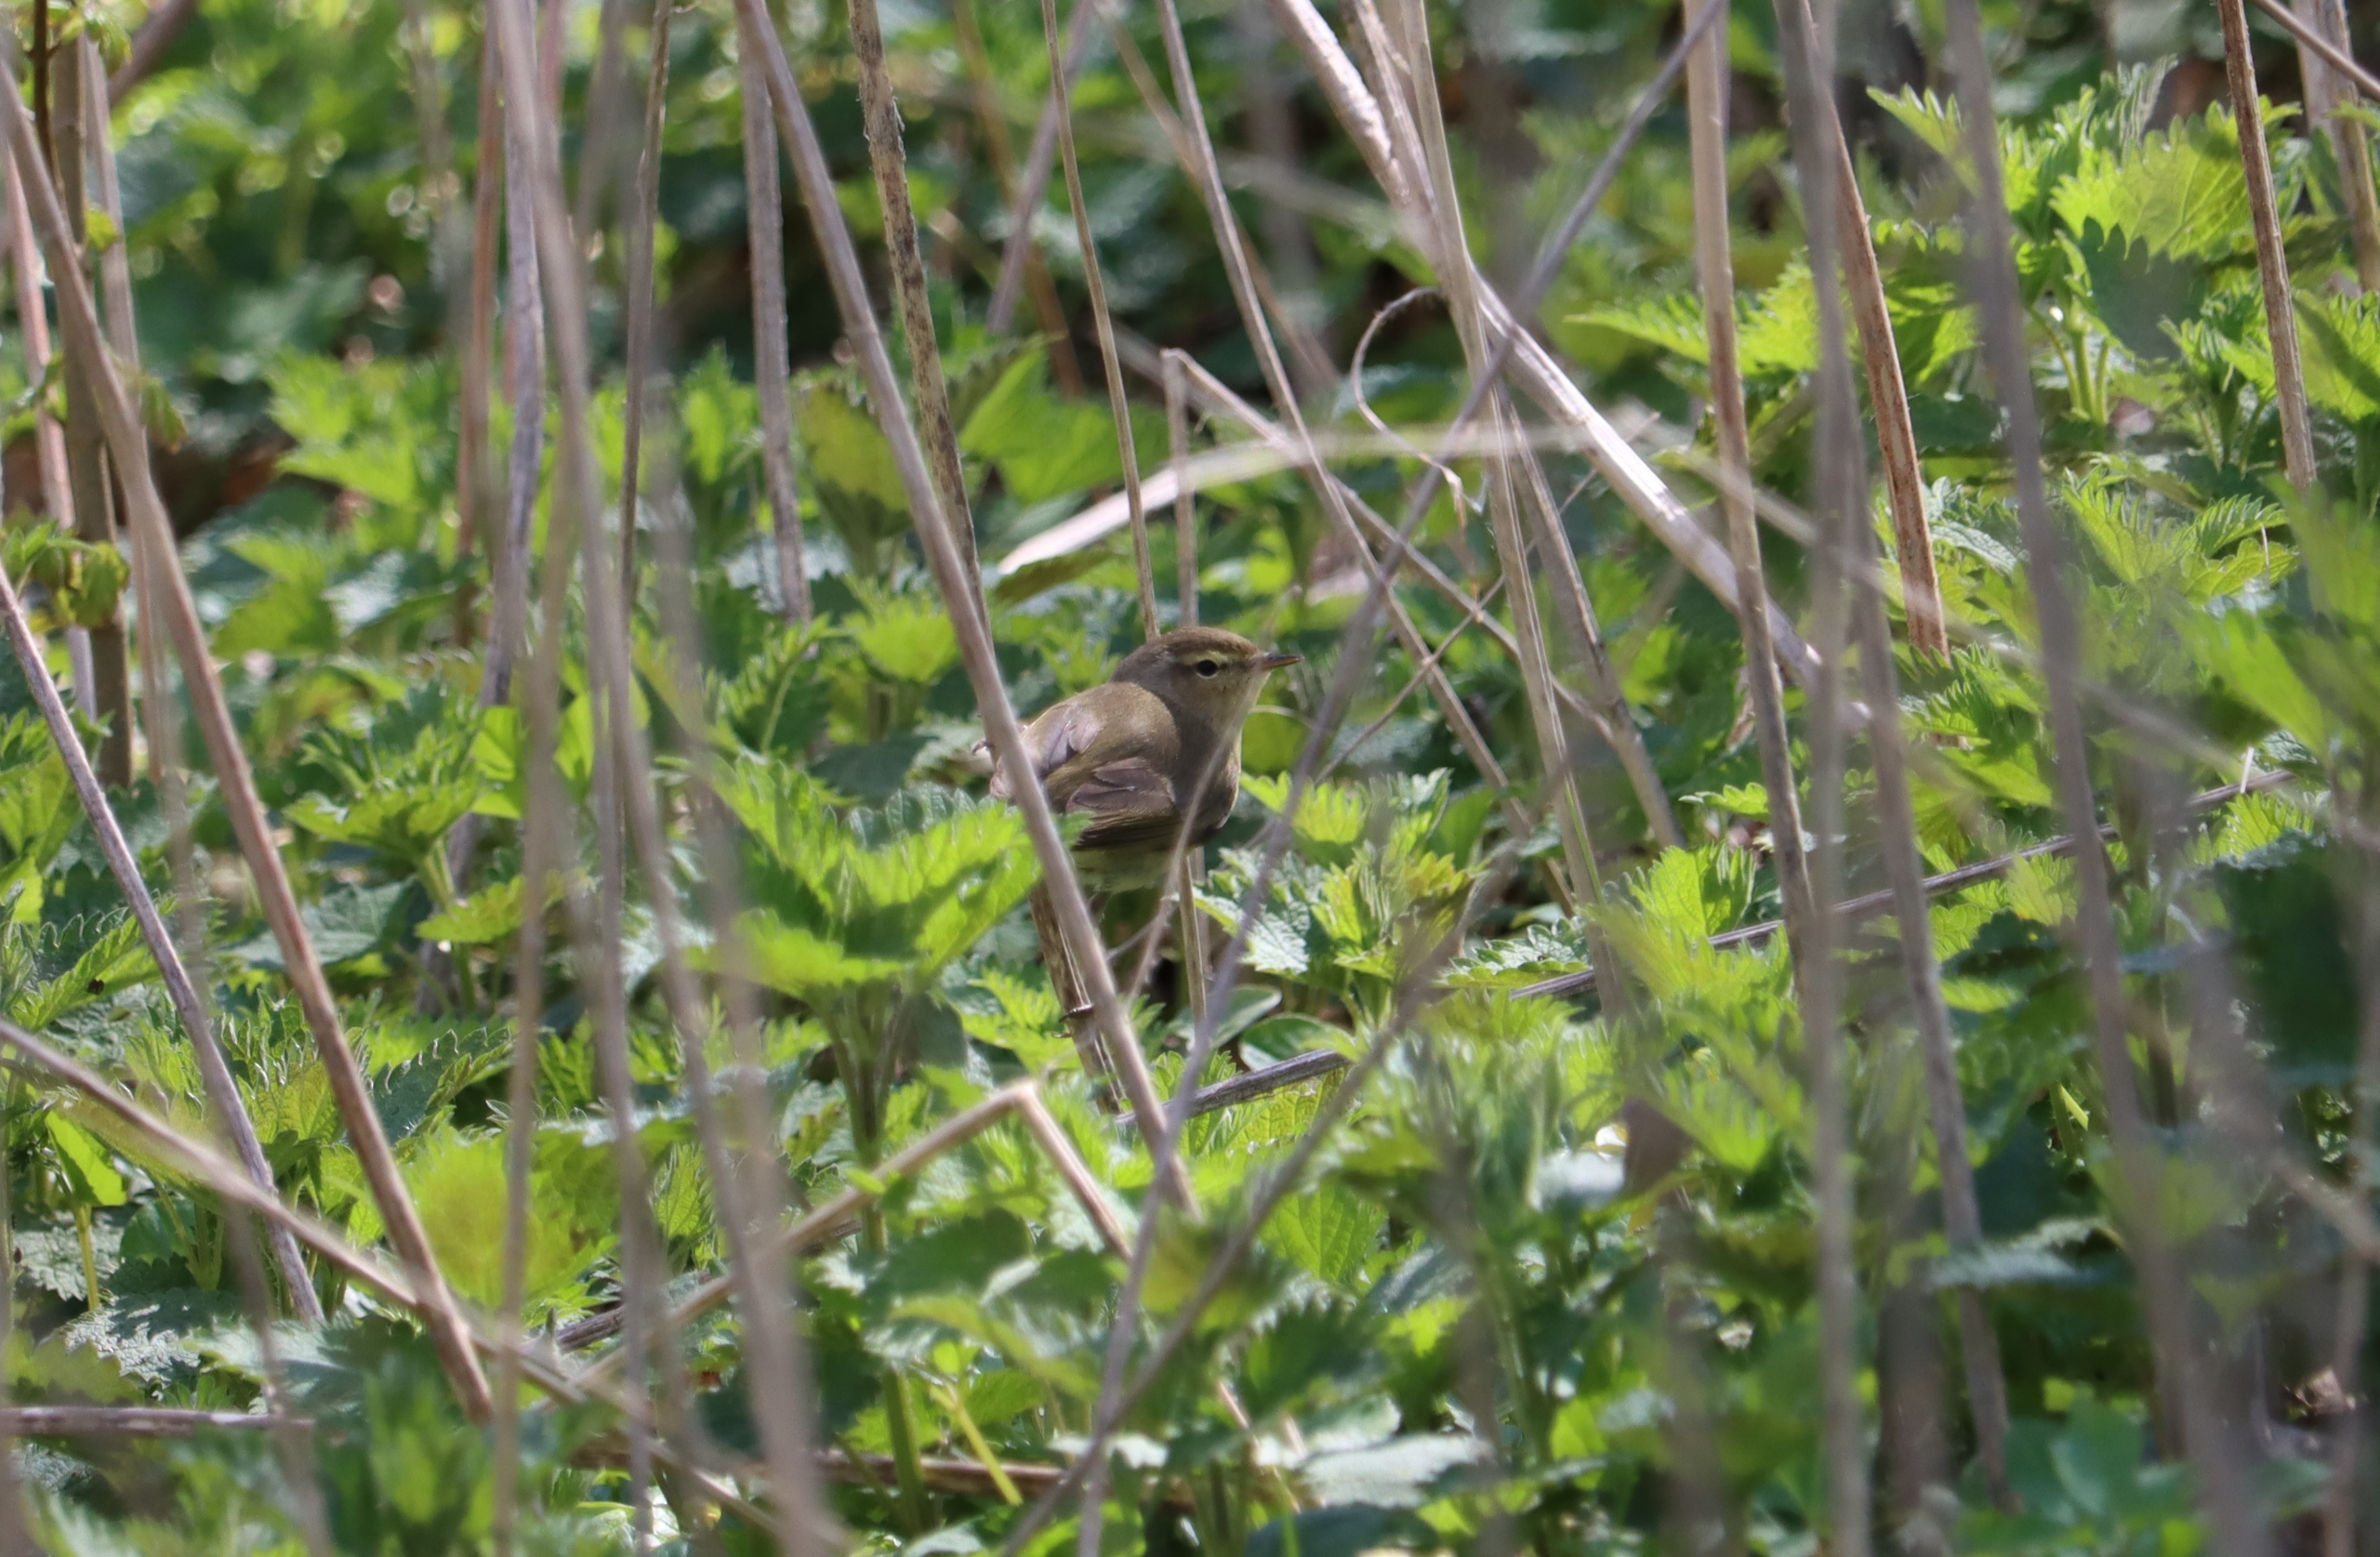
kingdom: Animalia
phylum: Chordata
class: Aves
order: Passeriformes
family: Phylloscopidae
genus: Phylloscopus
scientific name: Phylloscopus collybita
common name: Gransanger
